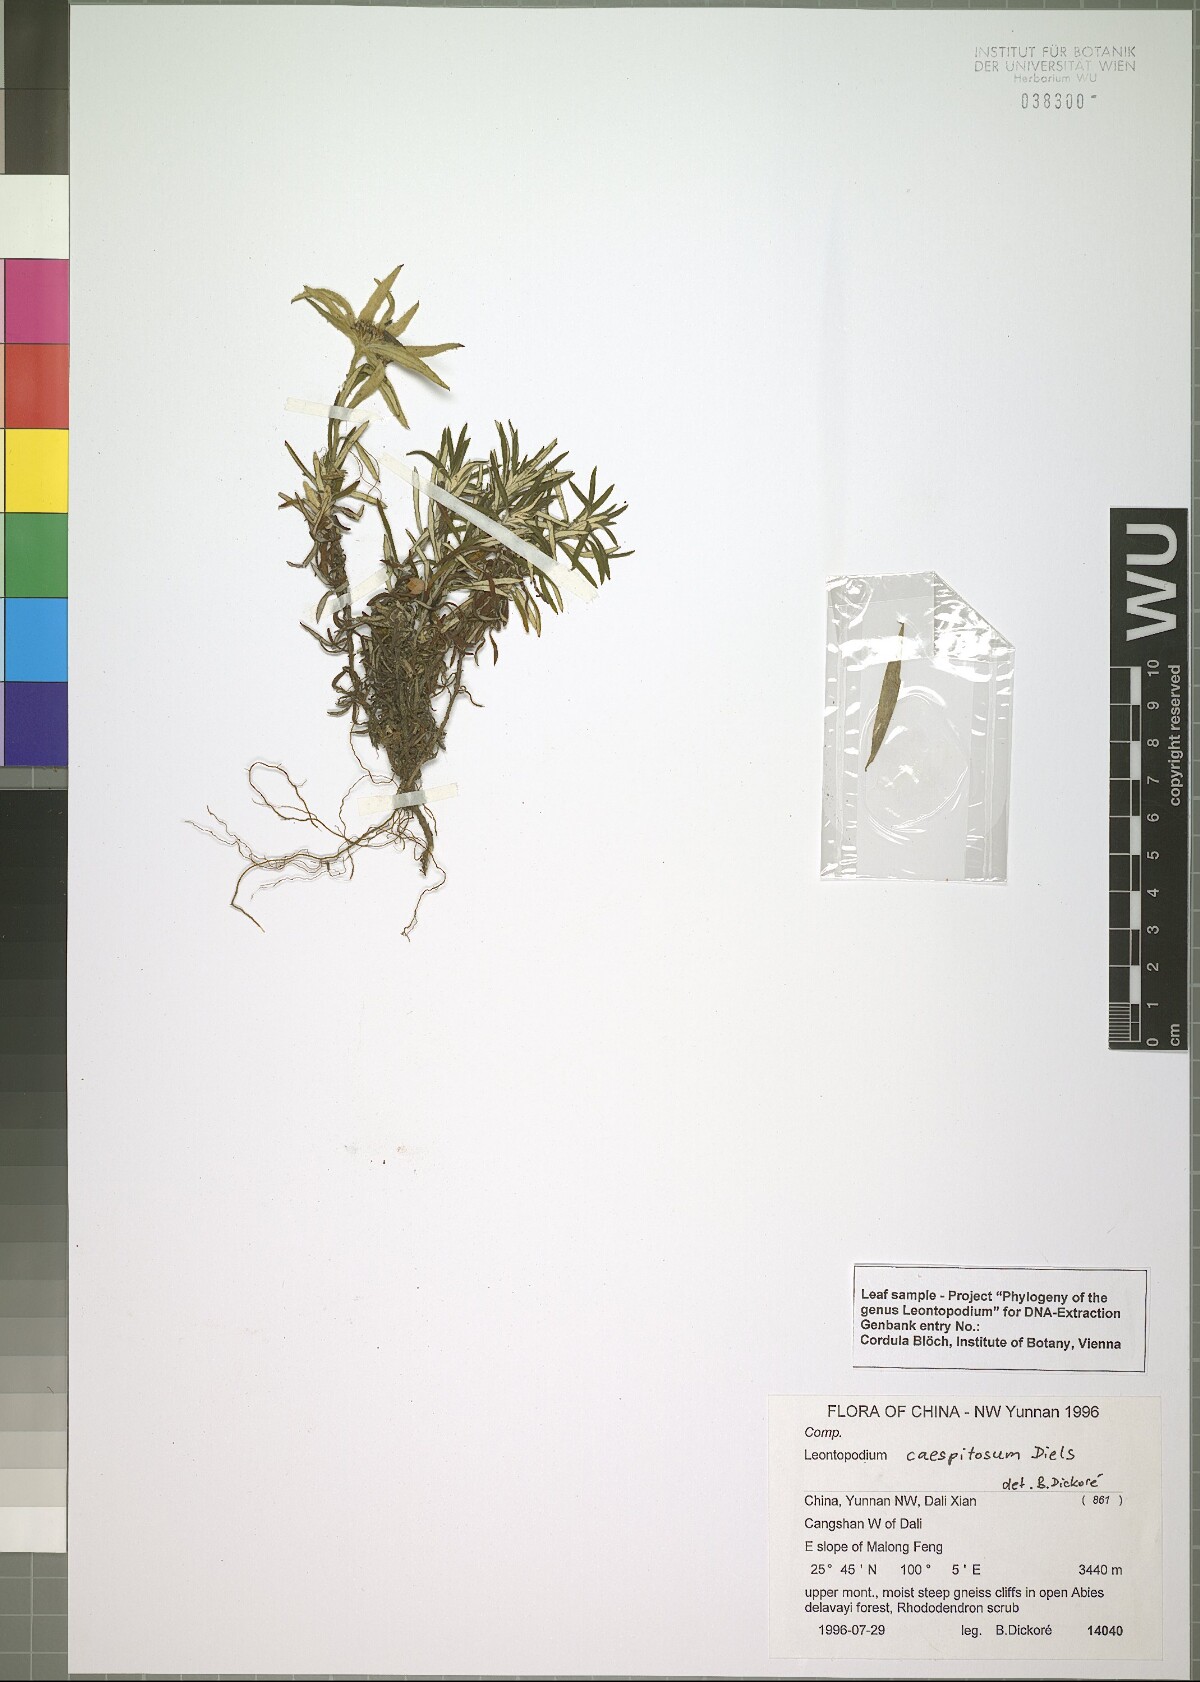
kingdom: Plantae
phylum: Tracheophyta
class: Magnoliopsida
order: Asterales
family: Asteraceae
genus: Leontopodium
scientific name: Leontopodium caespitosum
